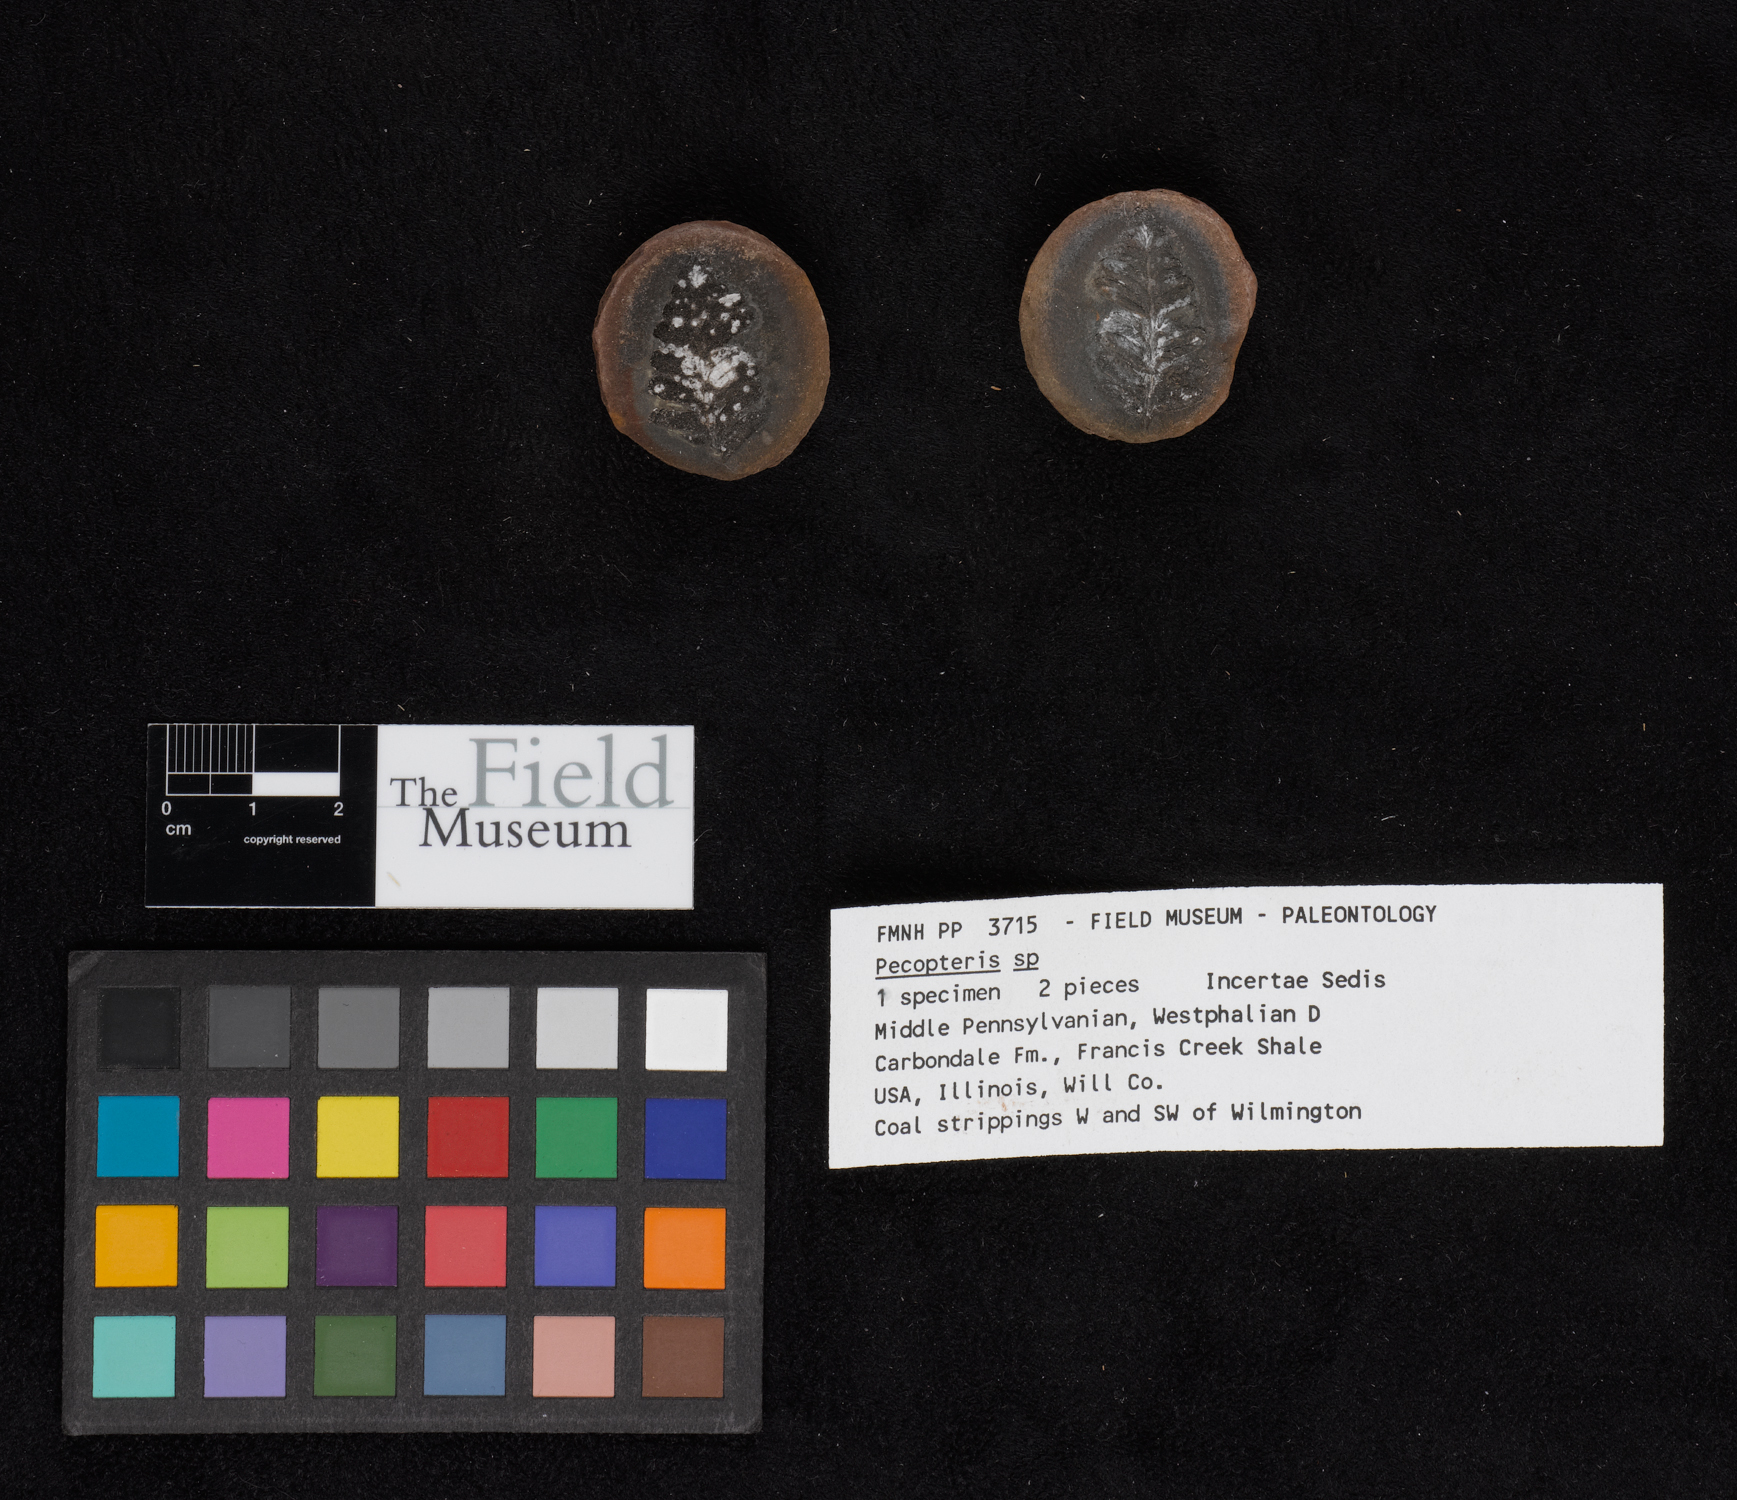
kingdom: Plantae
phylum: Tracheophyta
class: Polypodiopsida
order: Marattiales
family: Asterothecaceae
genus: Pecopteris
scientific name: Pecopteris
